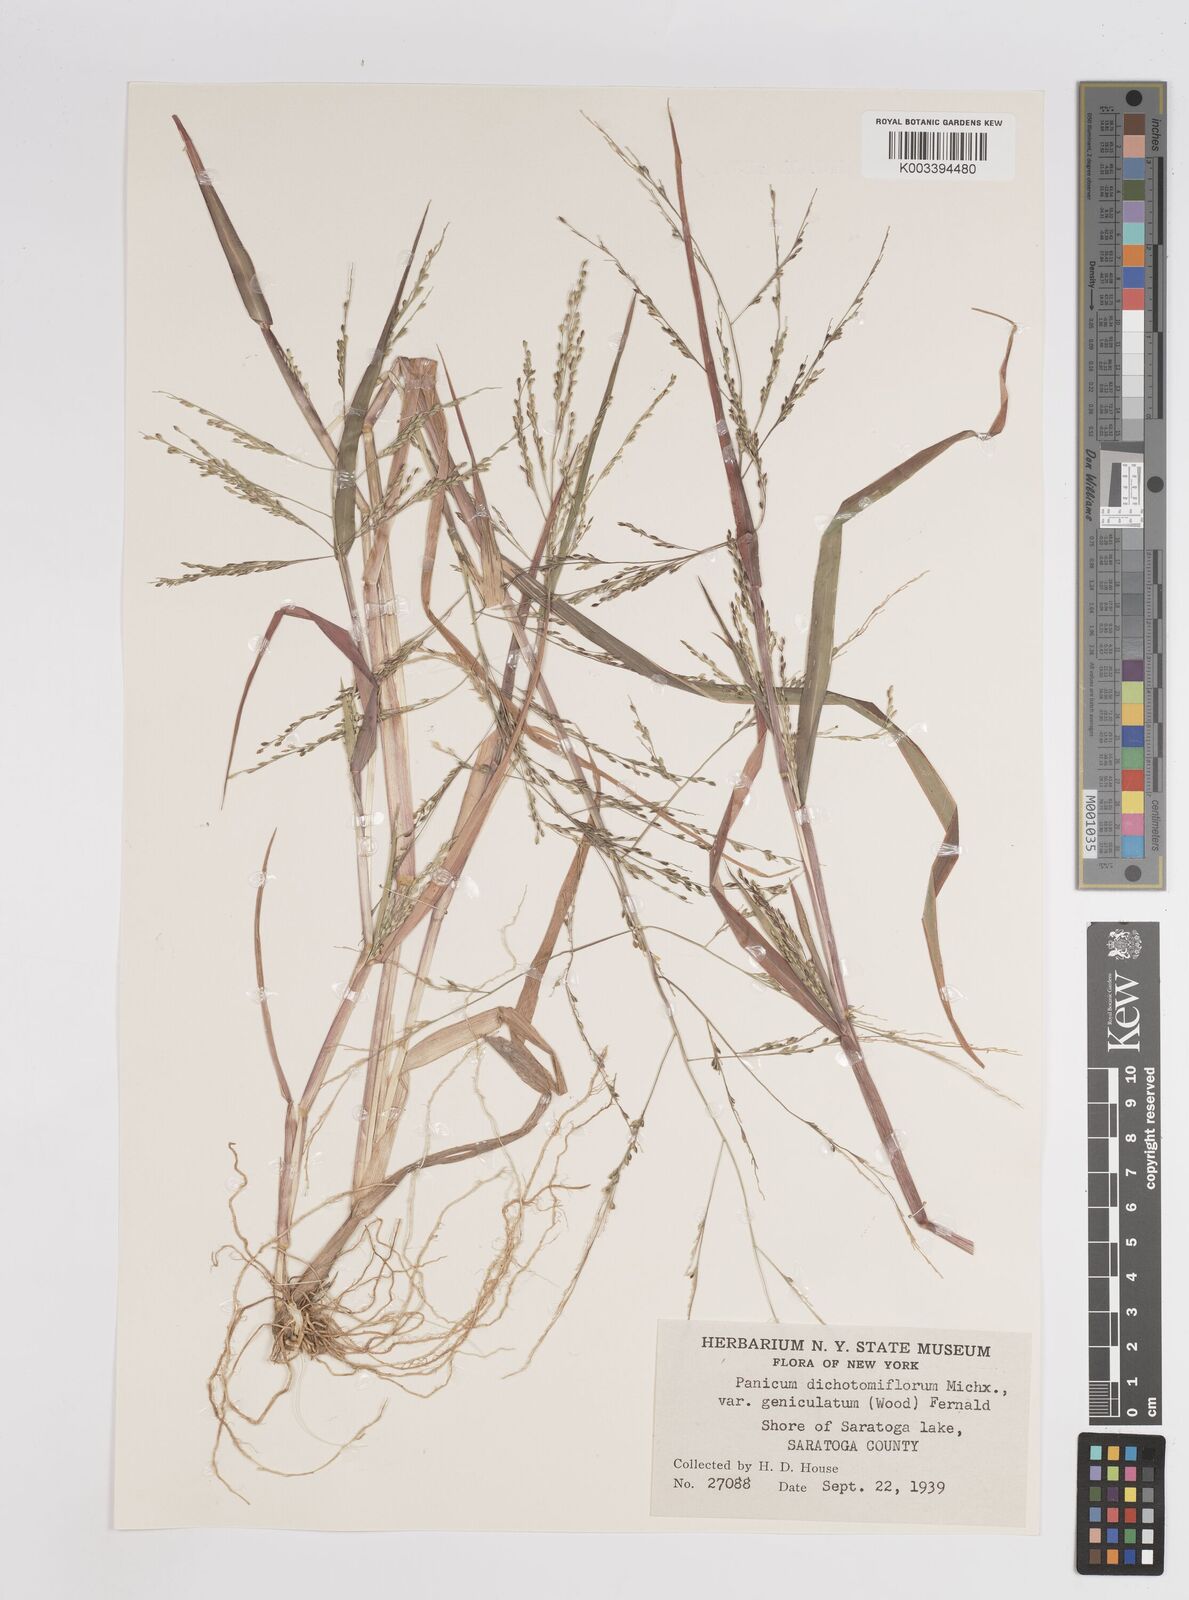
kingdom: Plantae
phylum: Tracheophyta
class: Liliopsida
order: Poales
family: Poaceae
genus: Panicum
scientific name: Panicum dichotomiflorum
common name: Autumn millet
